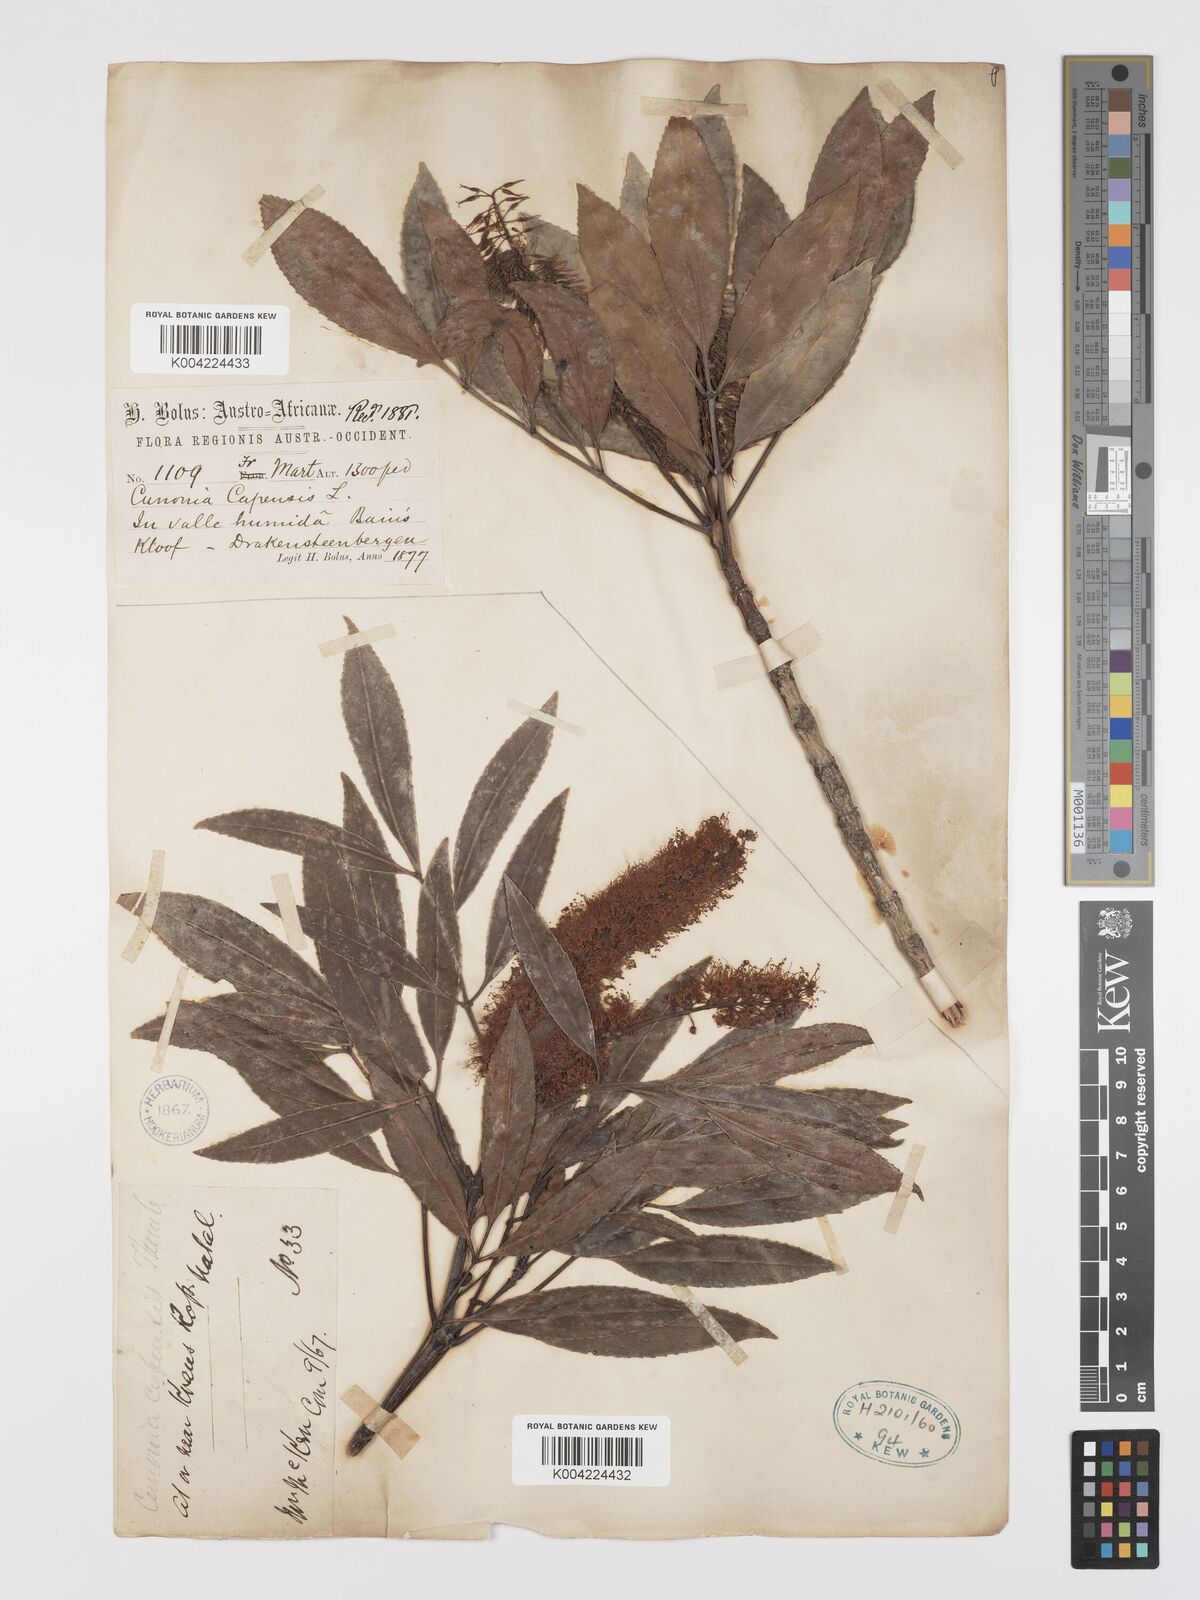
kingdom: Plantae
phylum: Tracheophyta
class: Magnoliopsida
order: Oxalidales
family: Cunoniaceae
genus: Cunonia
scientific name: Cunonia capensis
